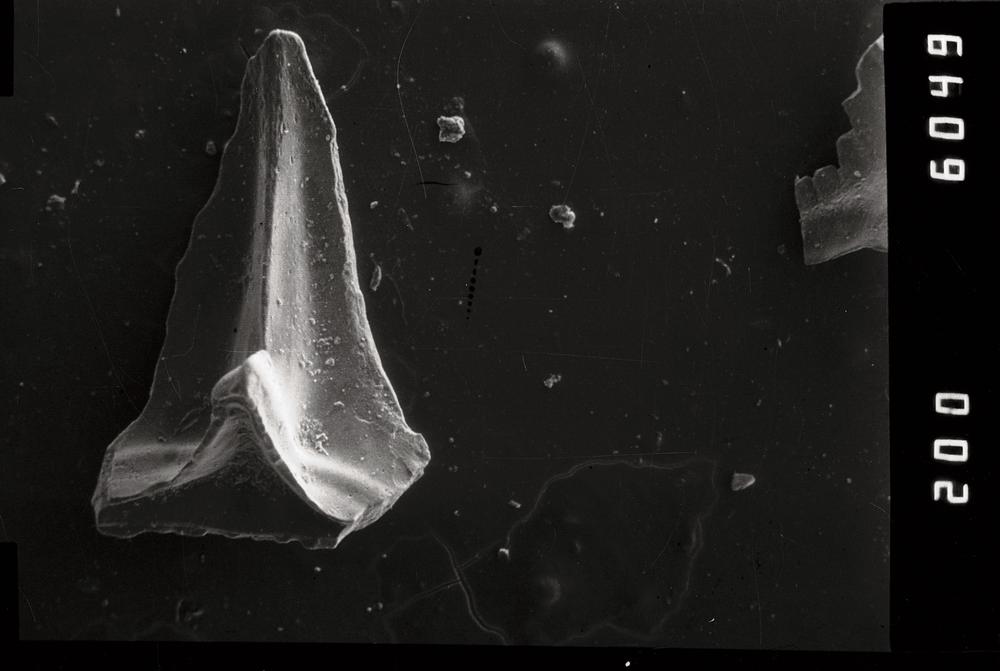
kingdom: Animalia
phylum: Chordata
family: Acodontidae
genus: Tripodus
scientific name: Tripodus
